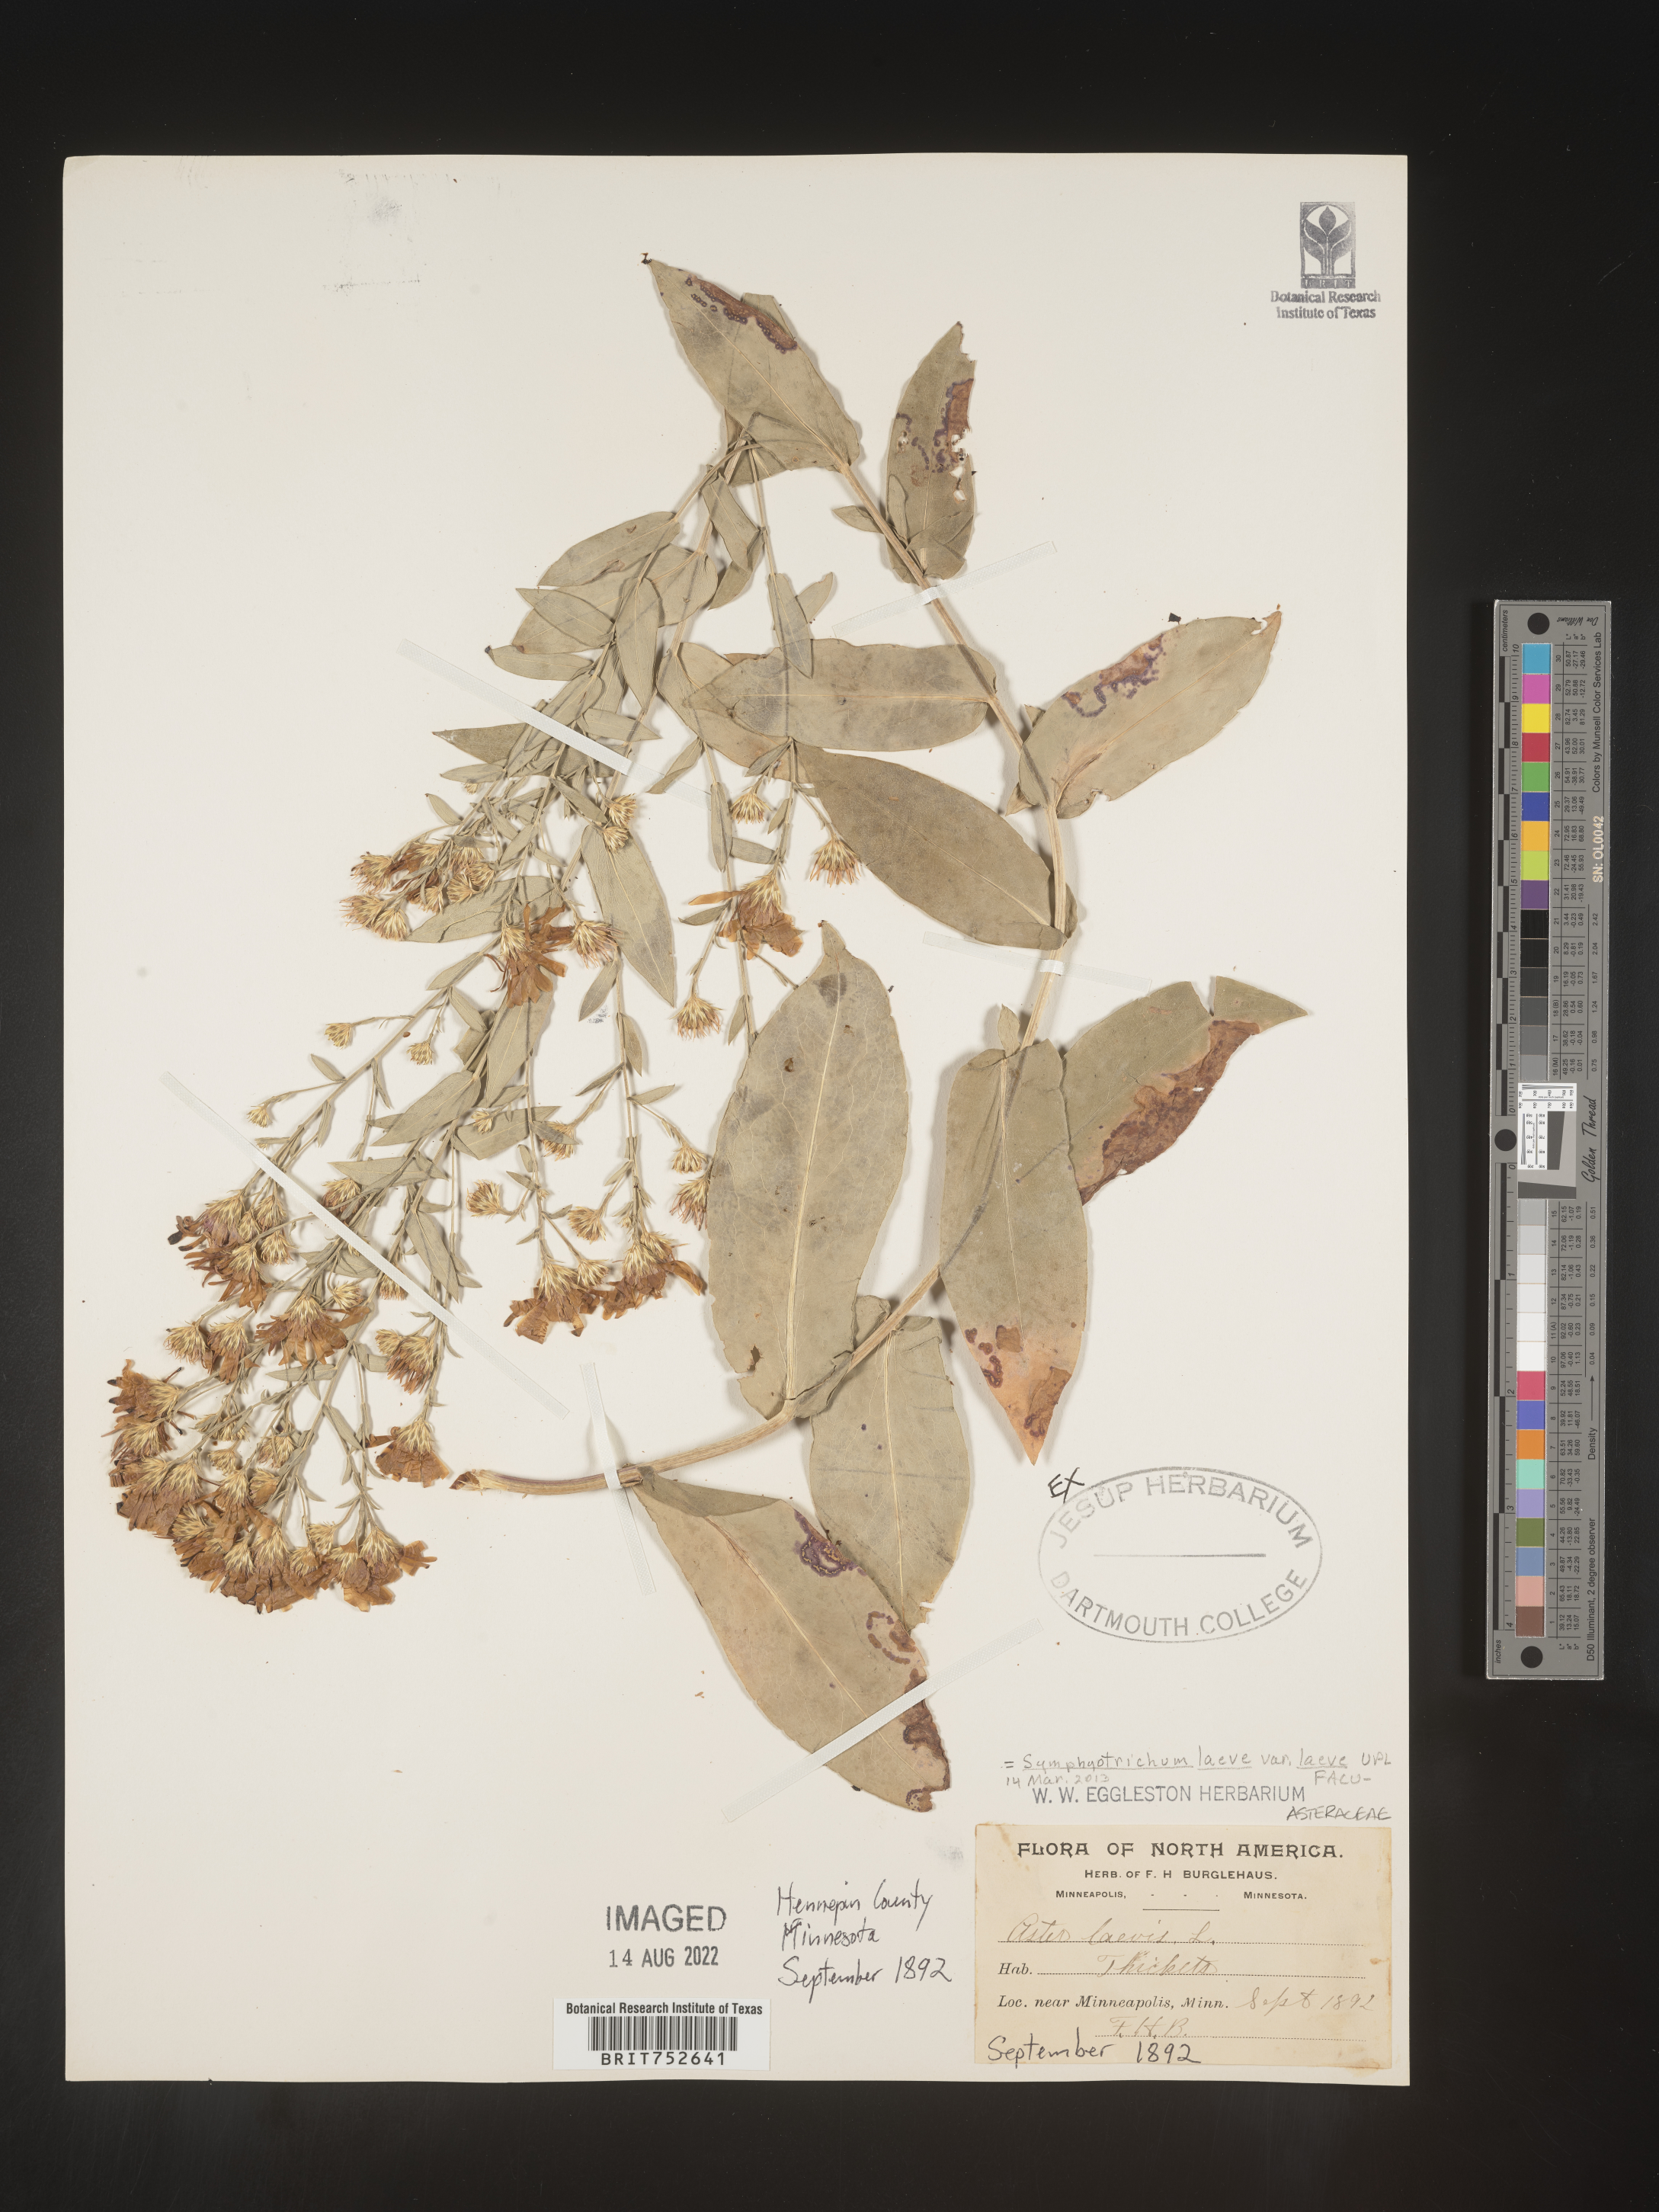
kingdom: Plantae
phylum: Tracheophyta
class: Magnoliopsida
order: Asterales
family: Asteraceae
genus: Symphyotrichum
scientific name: Symphyotrichum laeve
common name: Glaucous aster
